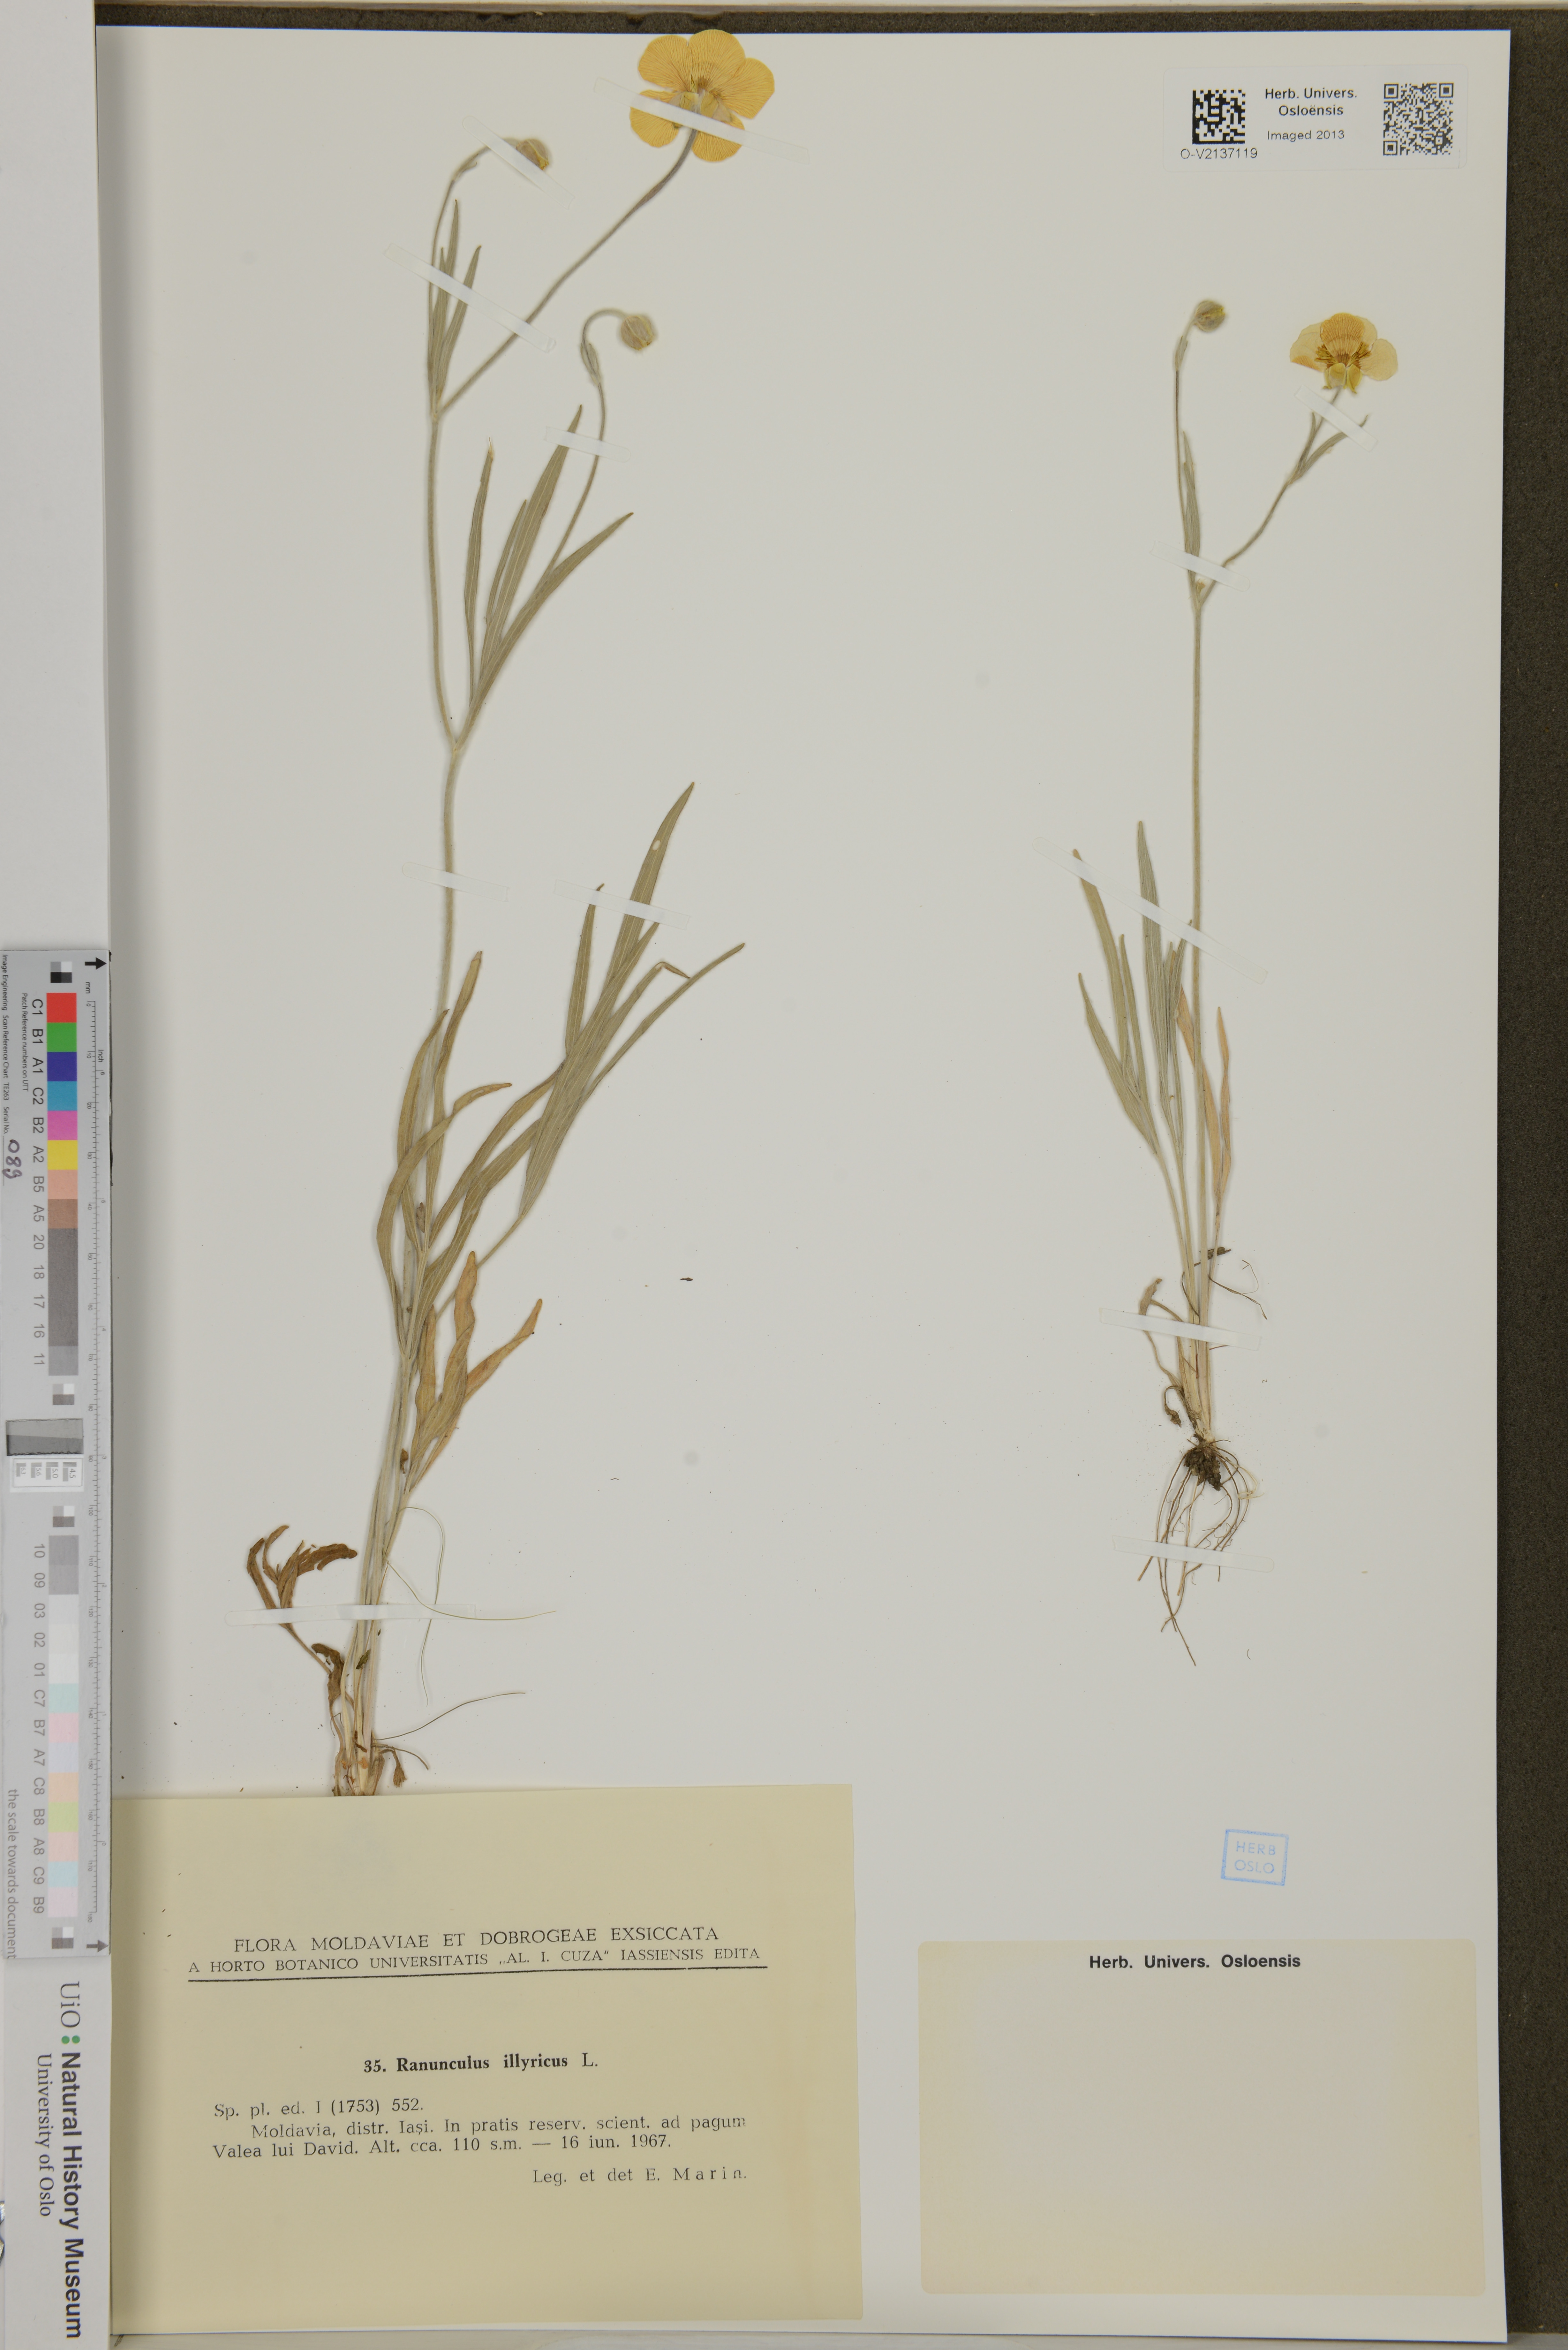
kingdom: Plantae
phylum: Tracheophyta
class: Magnoliopsida
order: Ranunculales
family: Ranunculaceae
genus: Ranunculus
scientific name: Ranunculus illyricus
